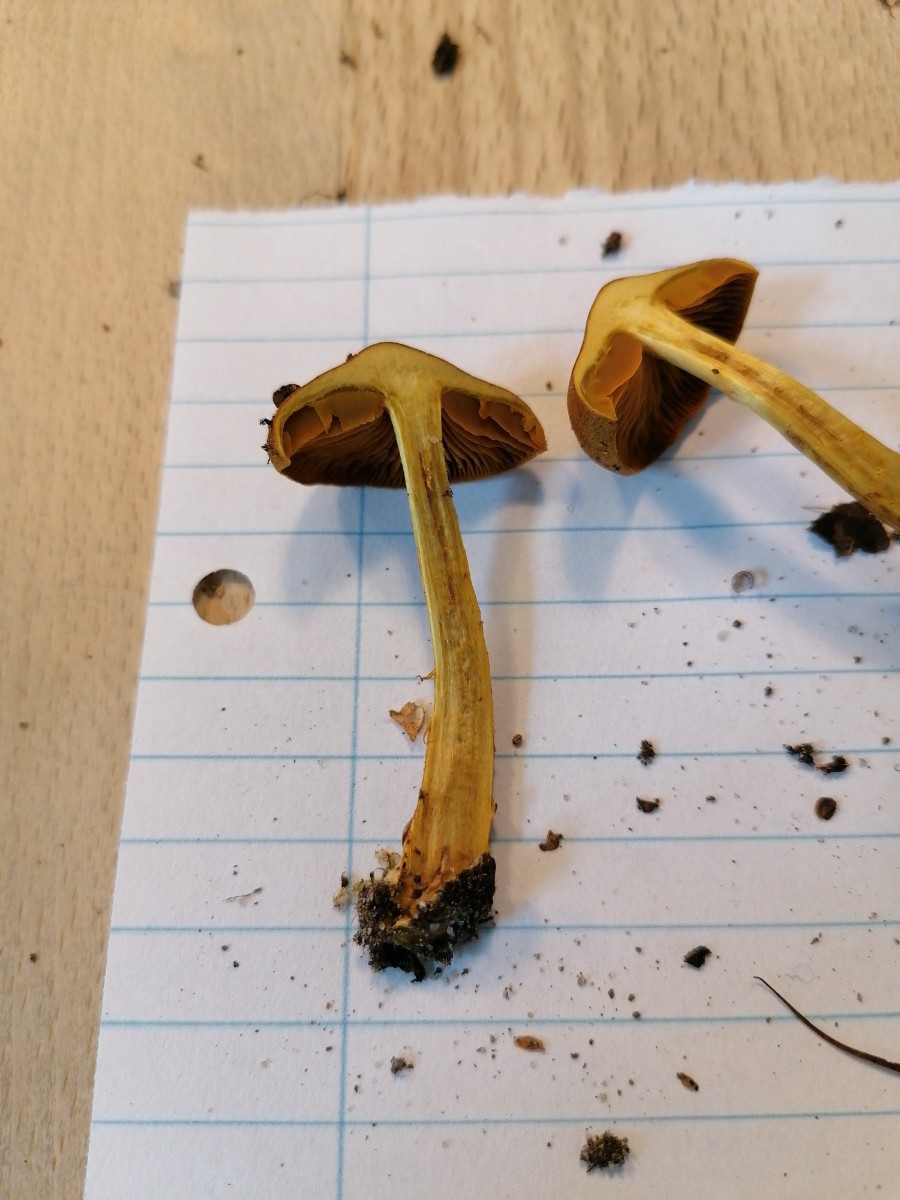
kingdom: Fungi
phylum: Basidiomycota
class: Agaricomycetes
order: Agaricales
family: Cortinariaceae
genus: Cortinarius
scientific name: Cortinarius malicorius
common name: grønkødet slørhat
